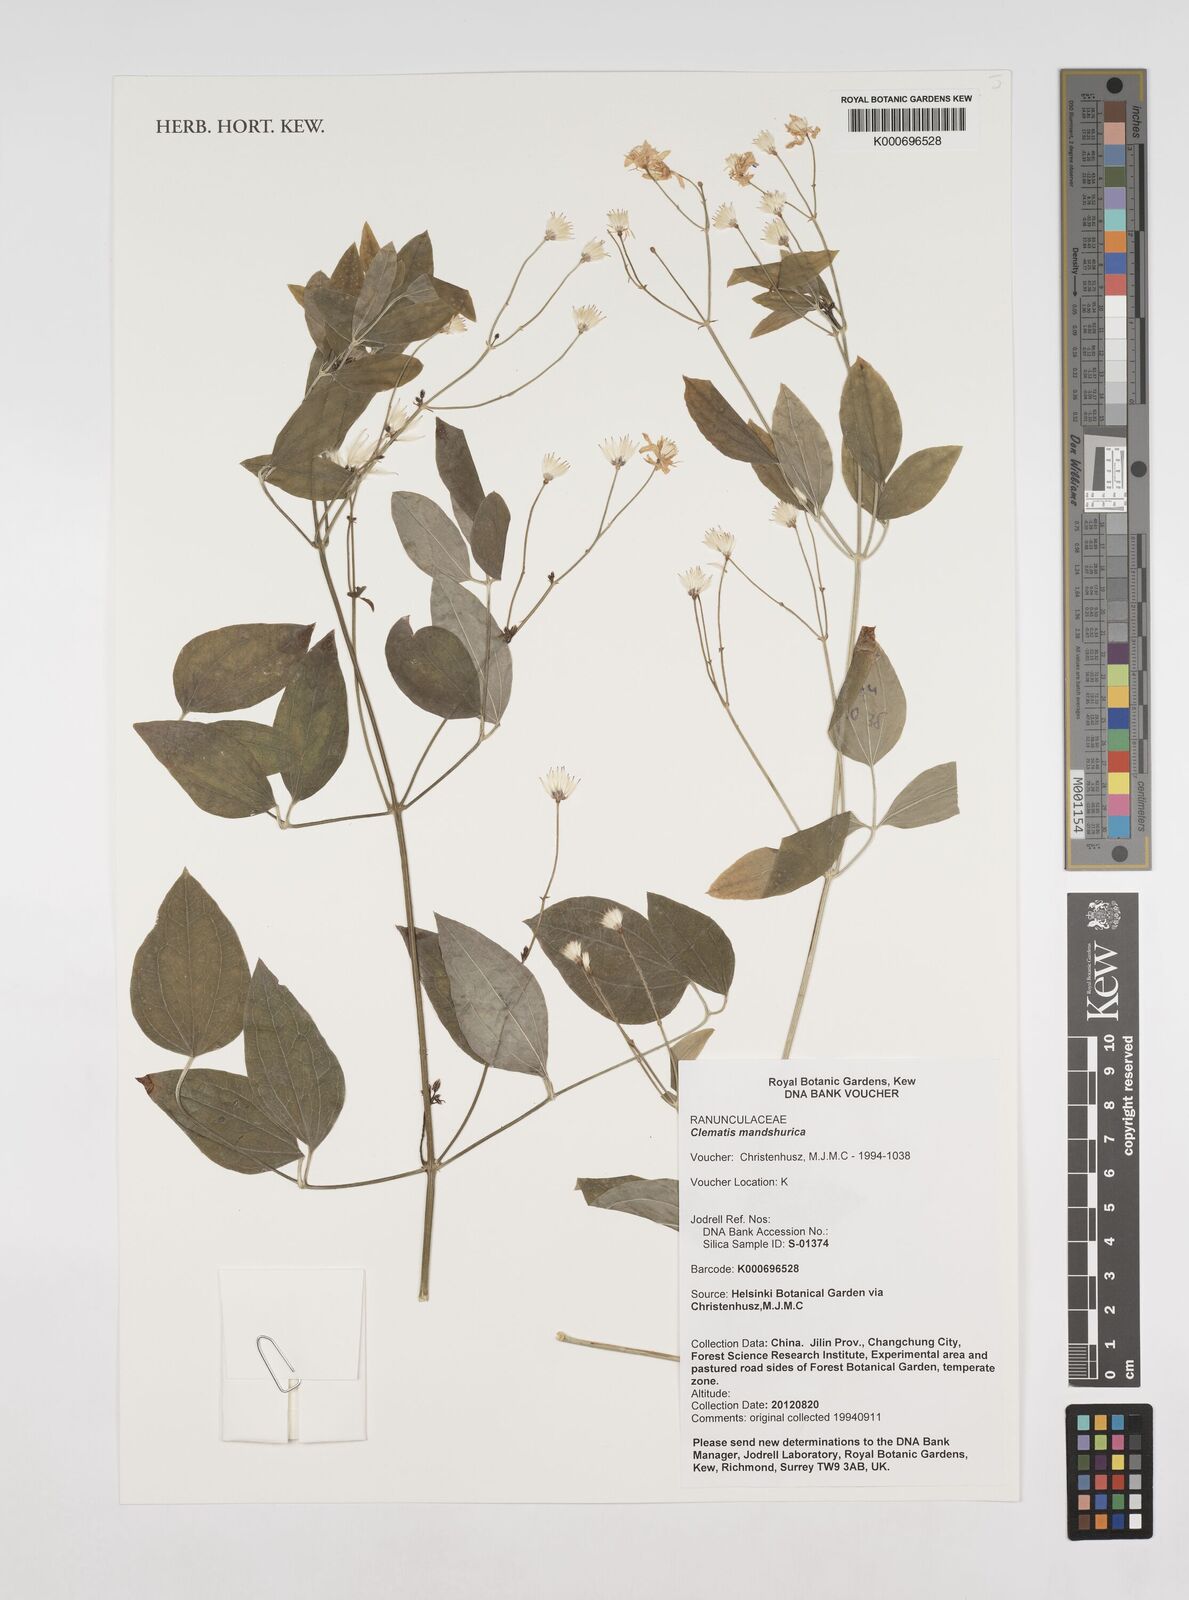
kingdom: Plantae
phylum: Tracheophyta
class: Magnoliopsida
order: Ranunculales
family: Ranunculaceae
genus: Clematis
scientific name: Clematis terniflora
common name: Sweet autumn clematis
